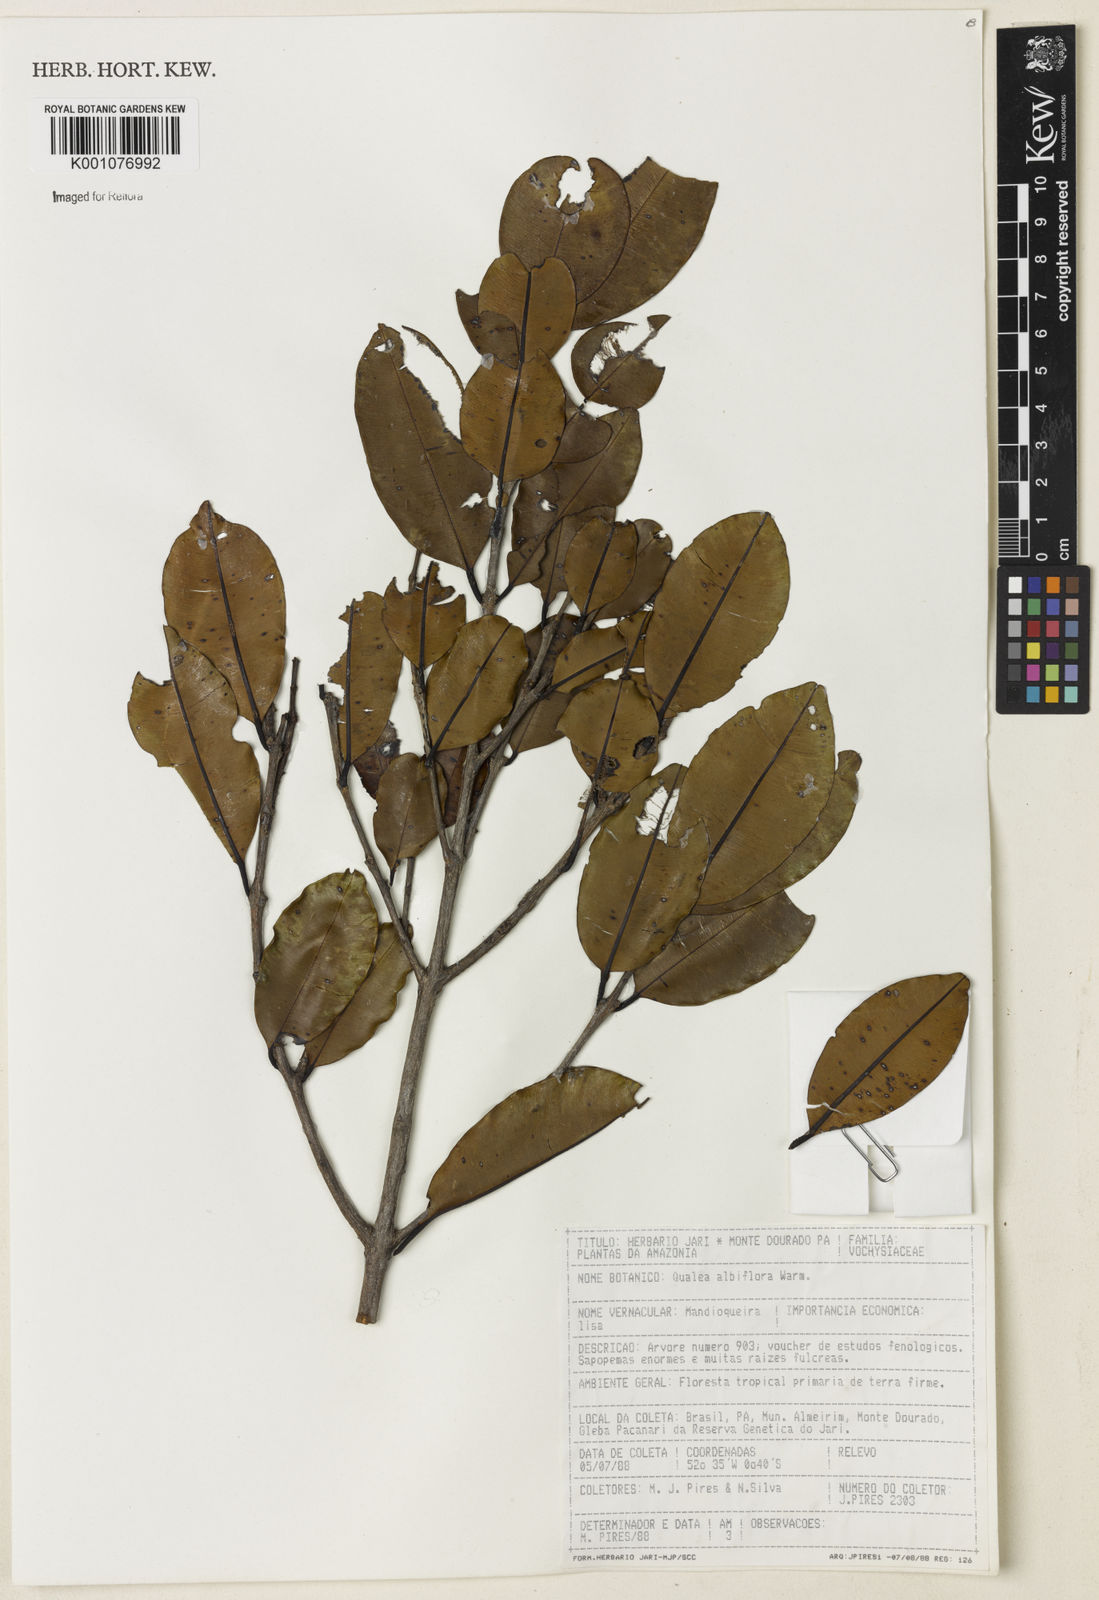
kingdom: Plantae
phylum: Tracheophyta
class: Magnoliopsida
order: Myrtales
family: Vochysiaceae
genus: Ruizterania
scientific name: Ruizterania albiflora
